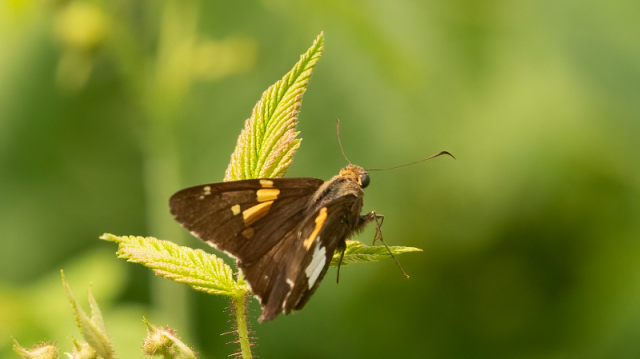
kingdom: Animalia
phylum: Arthropoda
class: Insecta
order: Lepidoptera
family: Hesperiidae
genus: Epargyreus
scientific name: Epargyreus clarus
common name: Silver-spotted Skipper
